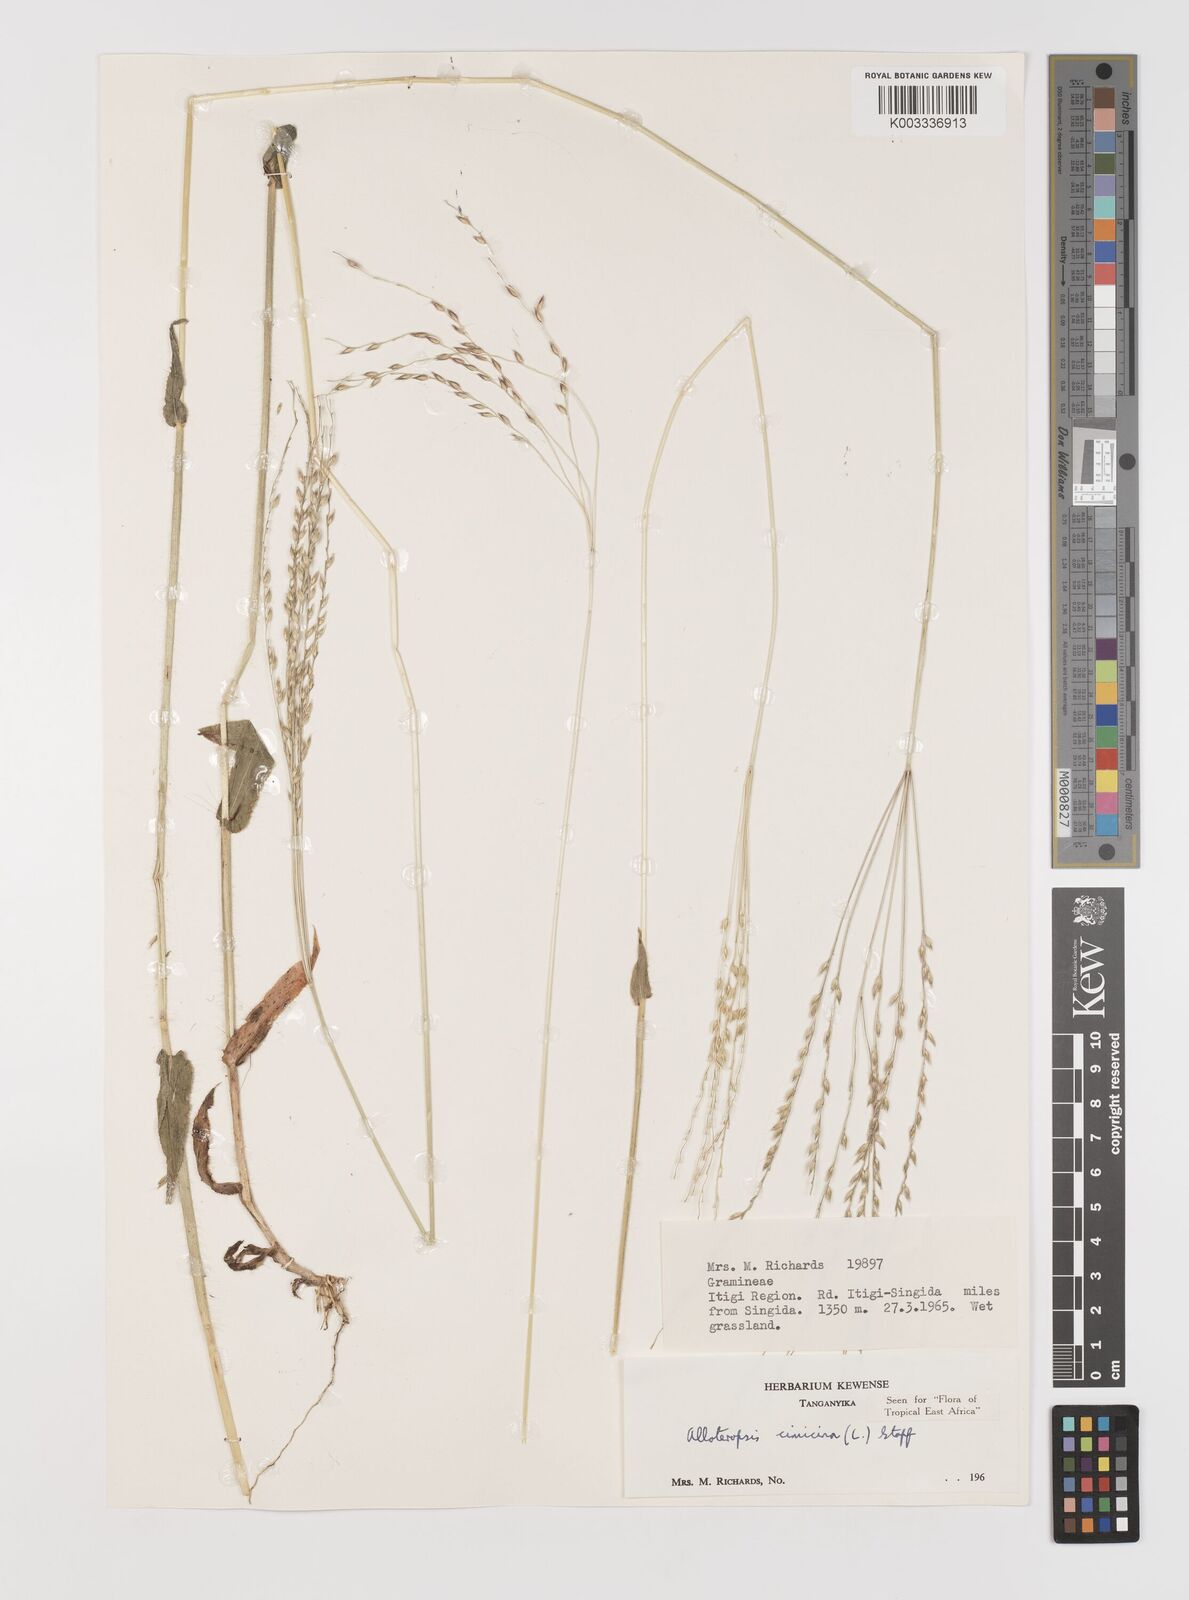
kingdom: Plantae
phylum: Tracheophyta
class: Liliopsida
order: Poales
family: Poaceae
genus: Alloteropsis
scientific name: Alloteropsis cimicina
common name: Summergrass
